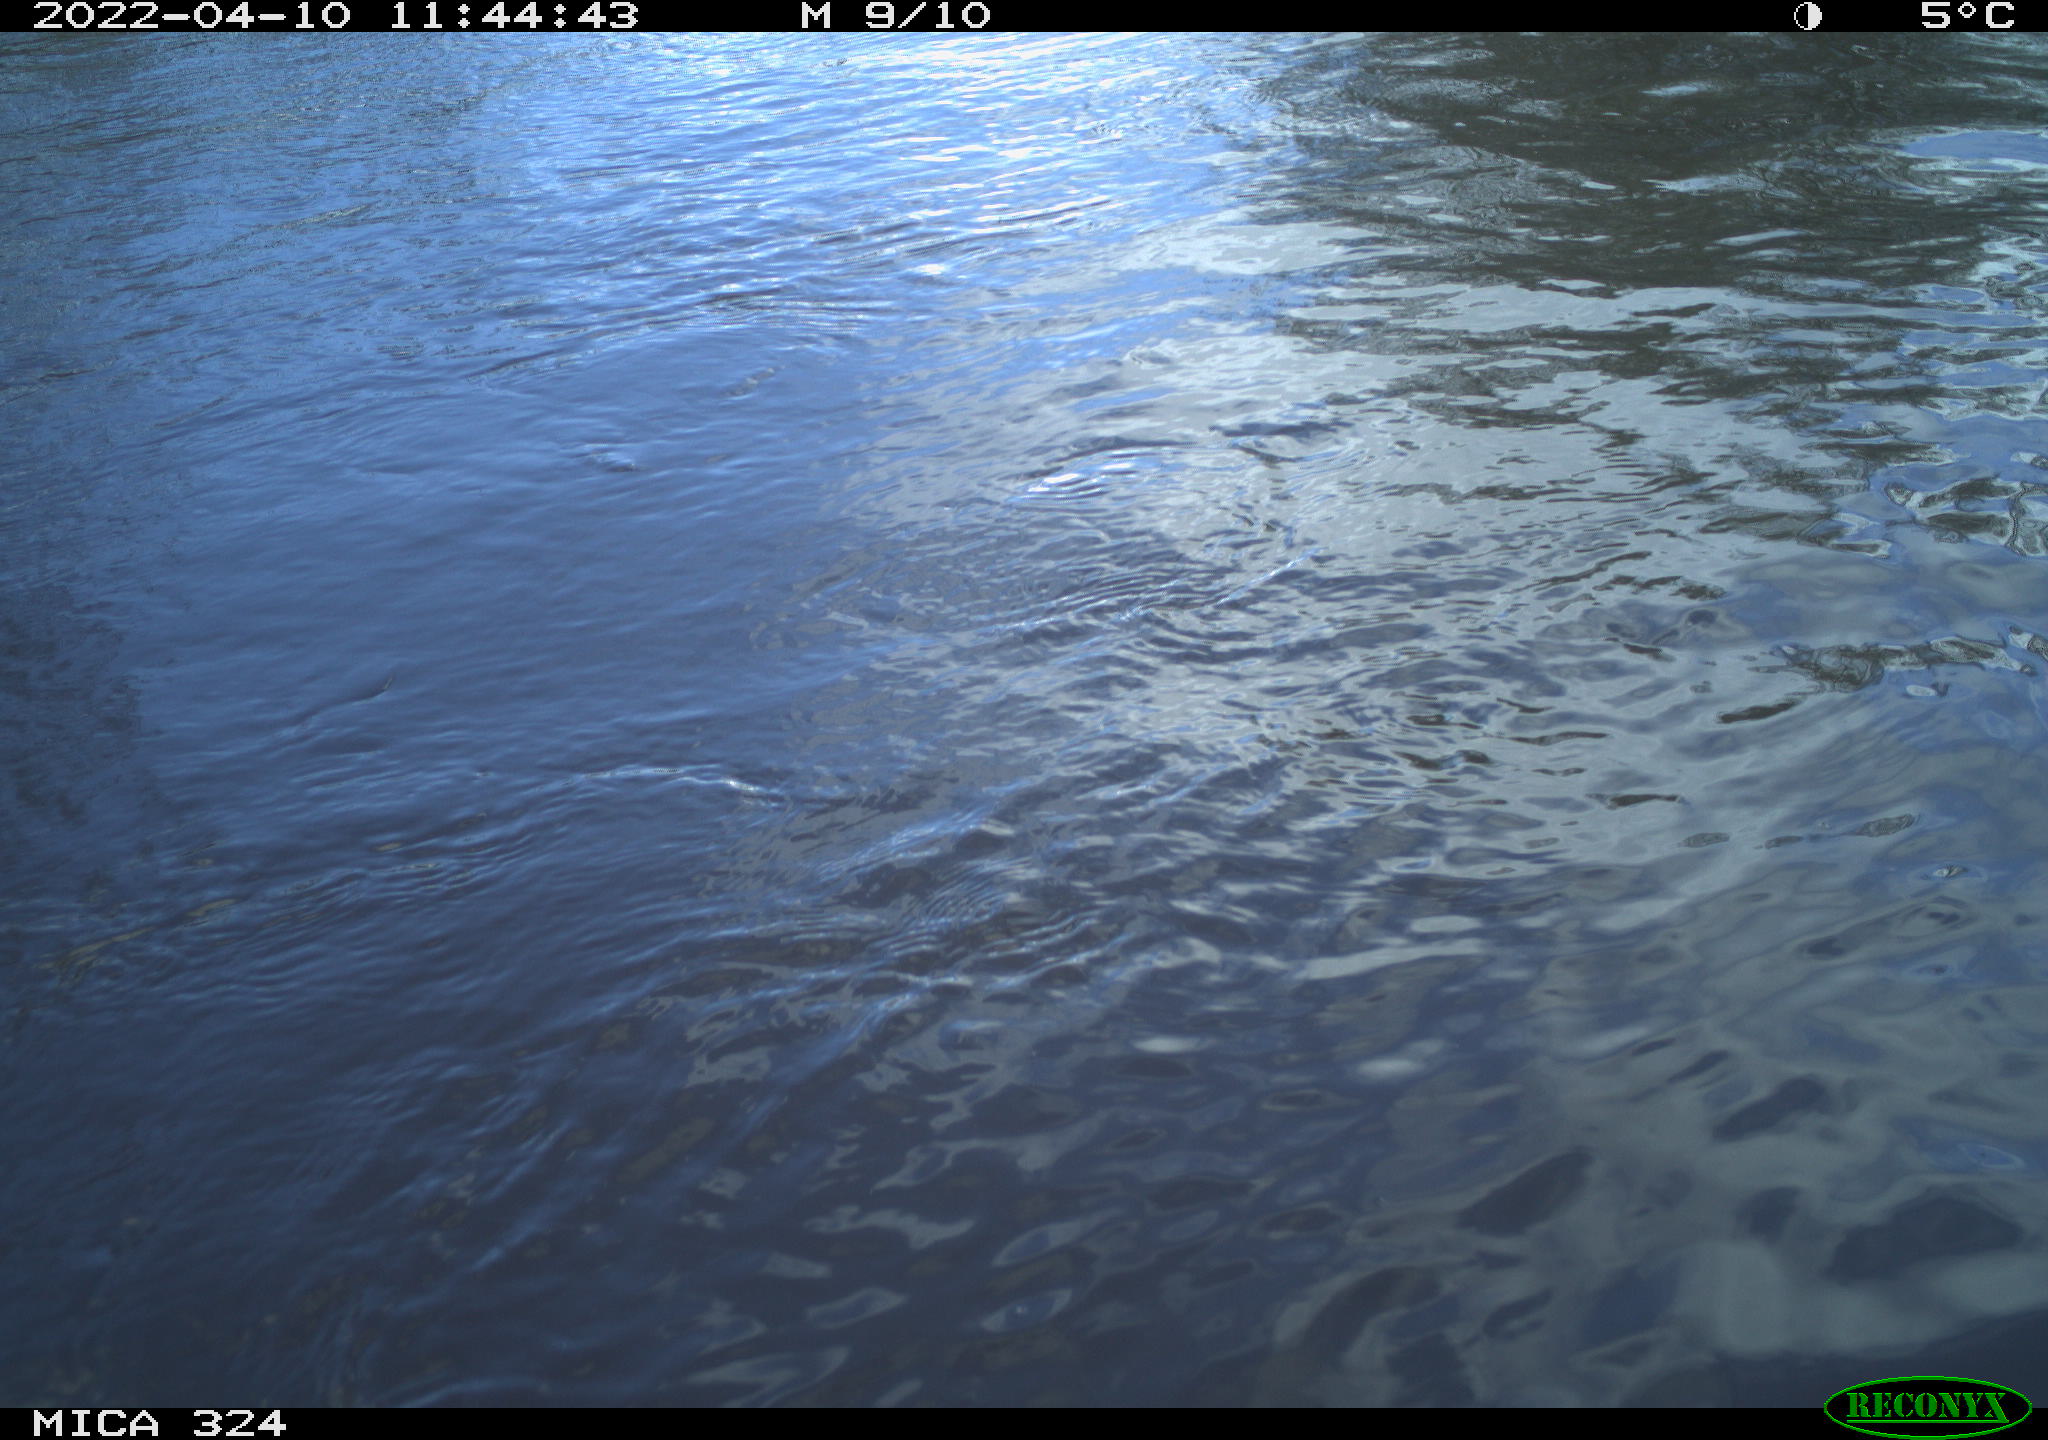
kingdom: Animalia
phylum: Chordata
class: Mammalia
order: Rodentia
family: Cricetidae
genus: Ondatra
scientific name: Ondatra zibethicus
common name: Muskrat
